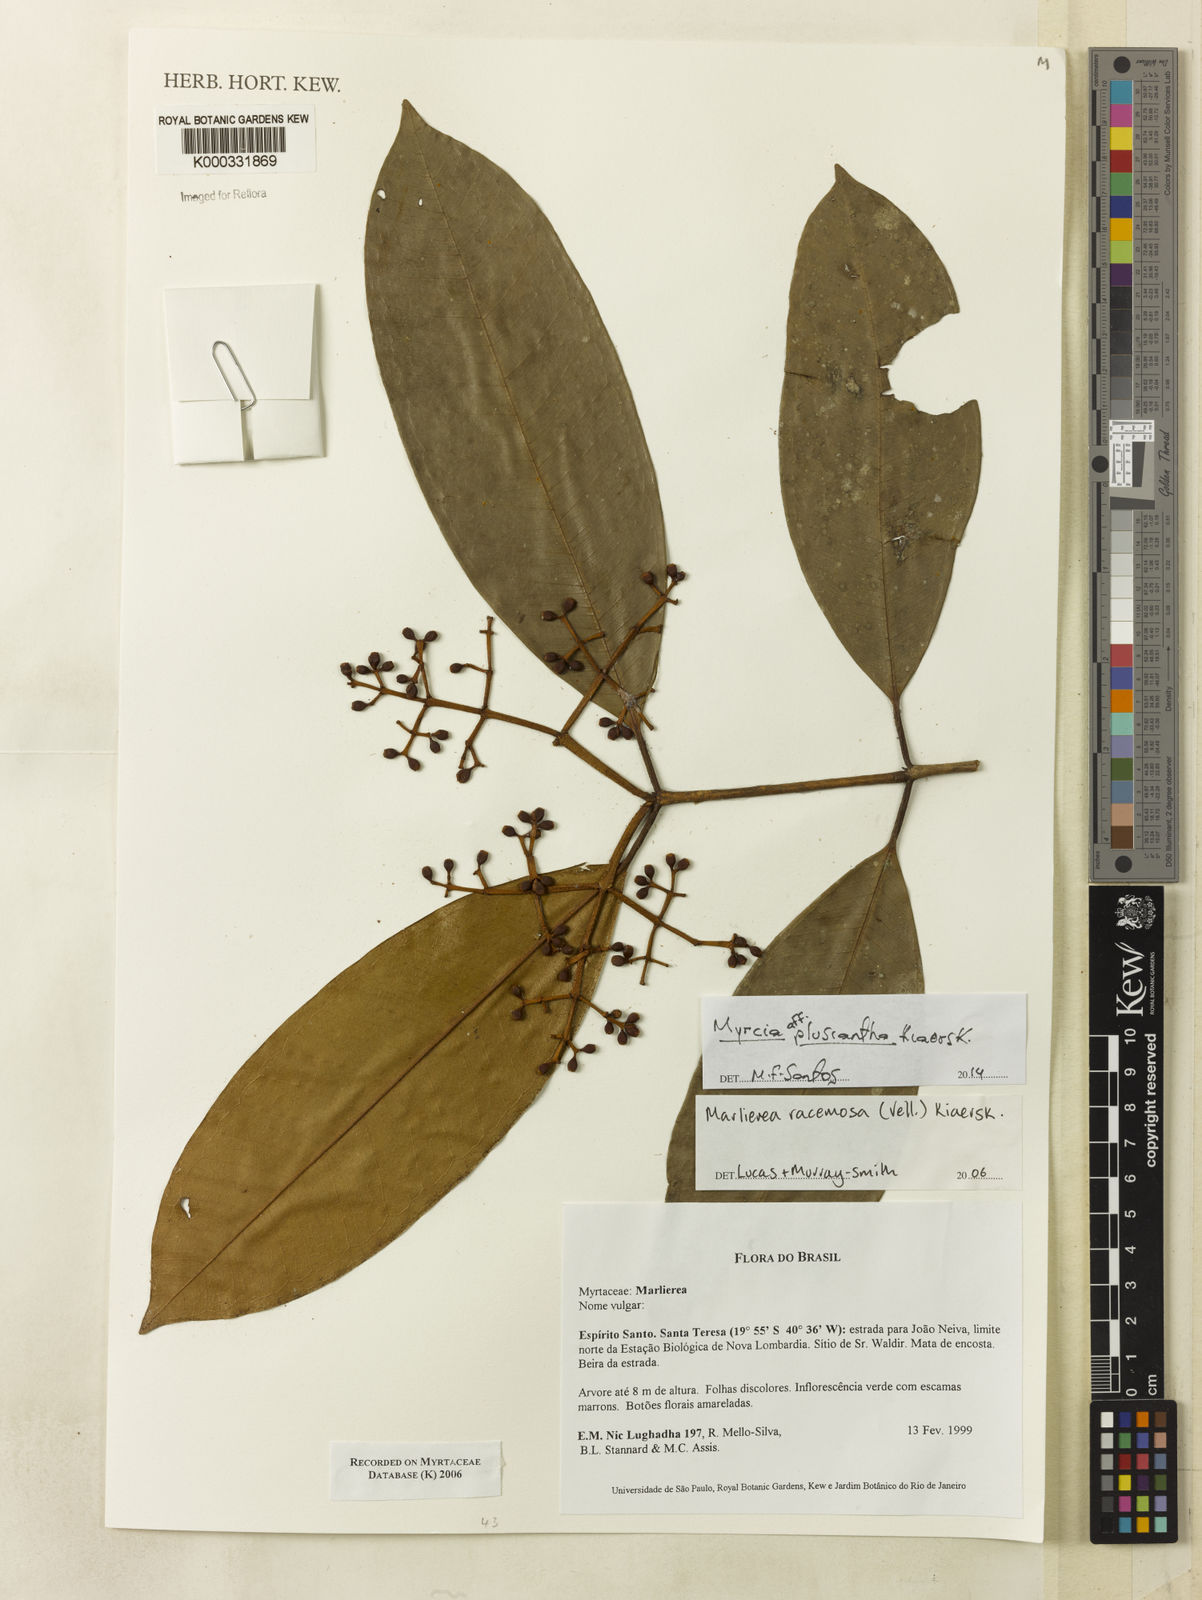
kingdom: Plantae
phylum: Tracheophyta
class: Magnoliopsida
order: Myrtales
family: Myrtaceae
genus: Myrcia
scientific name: Myrcia vellozoi
